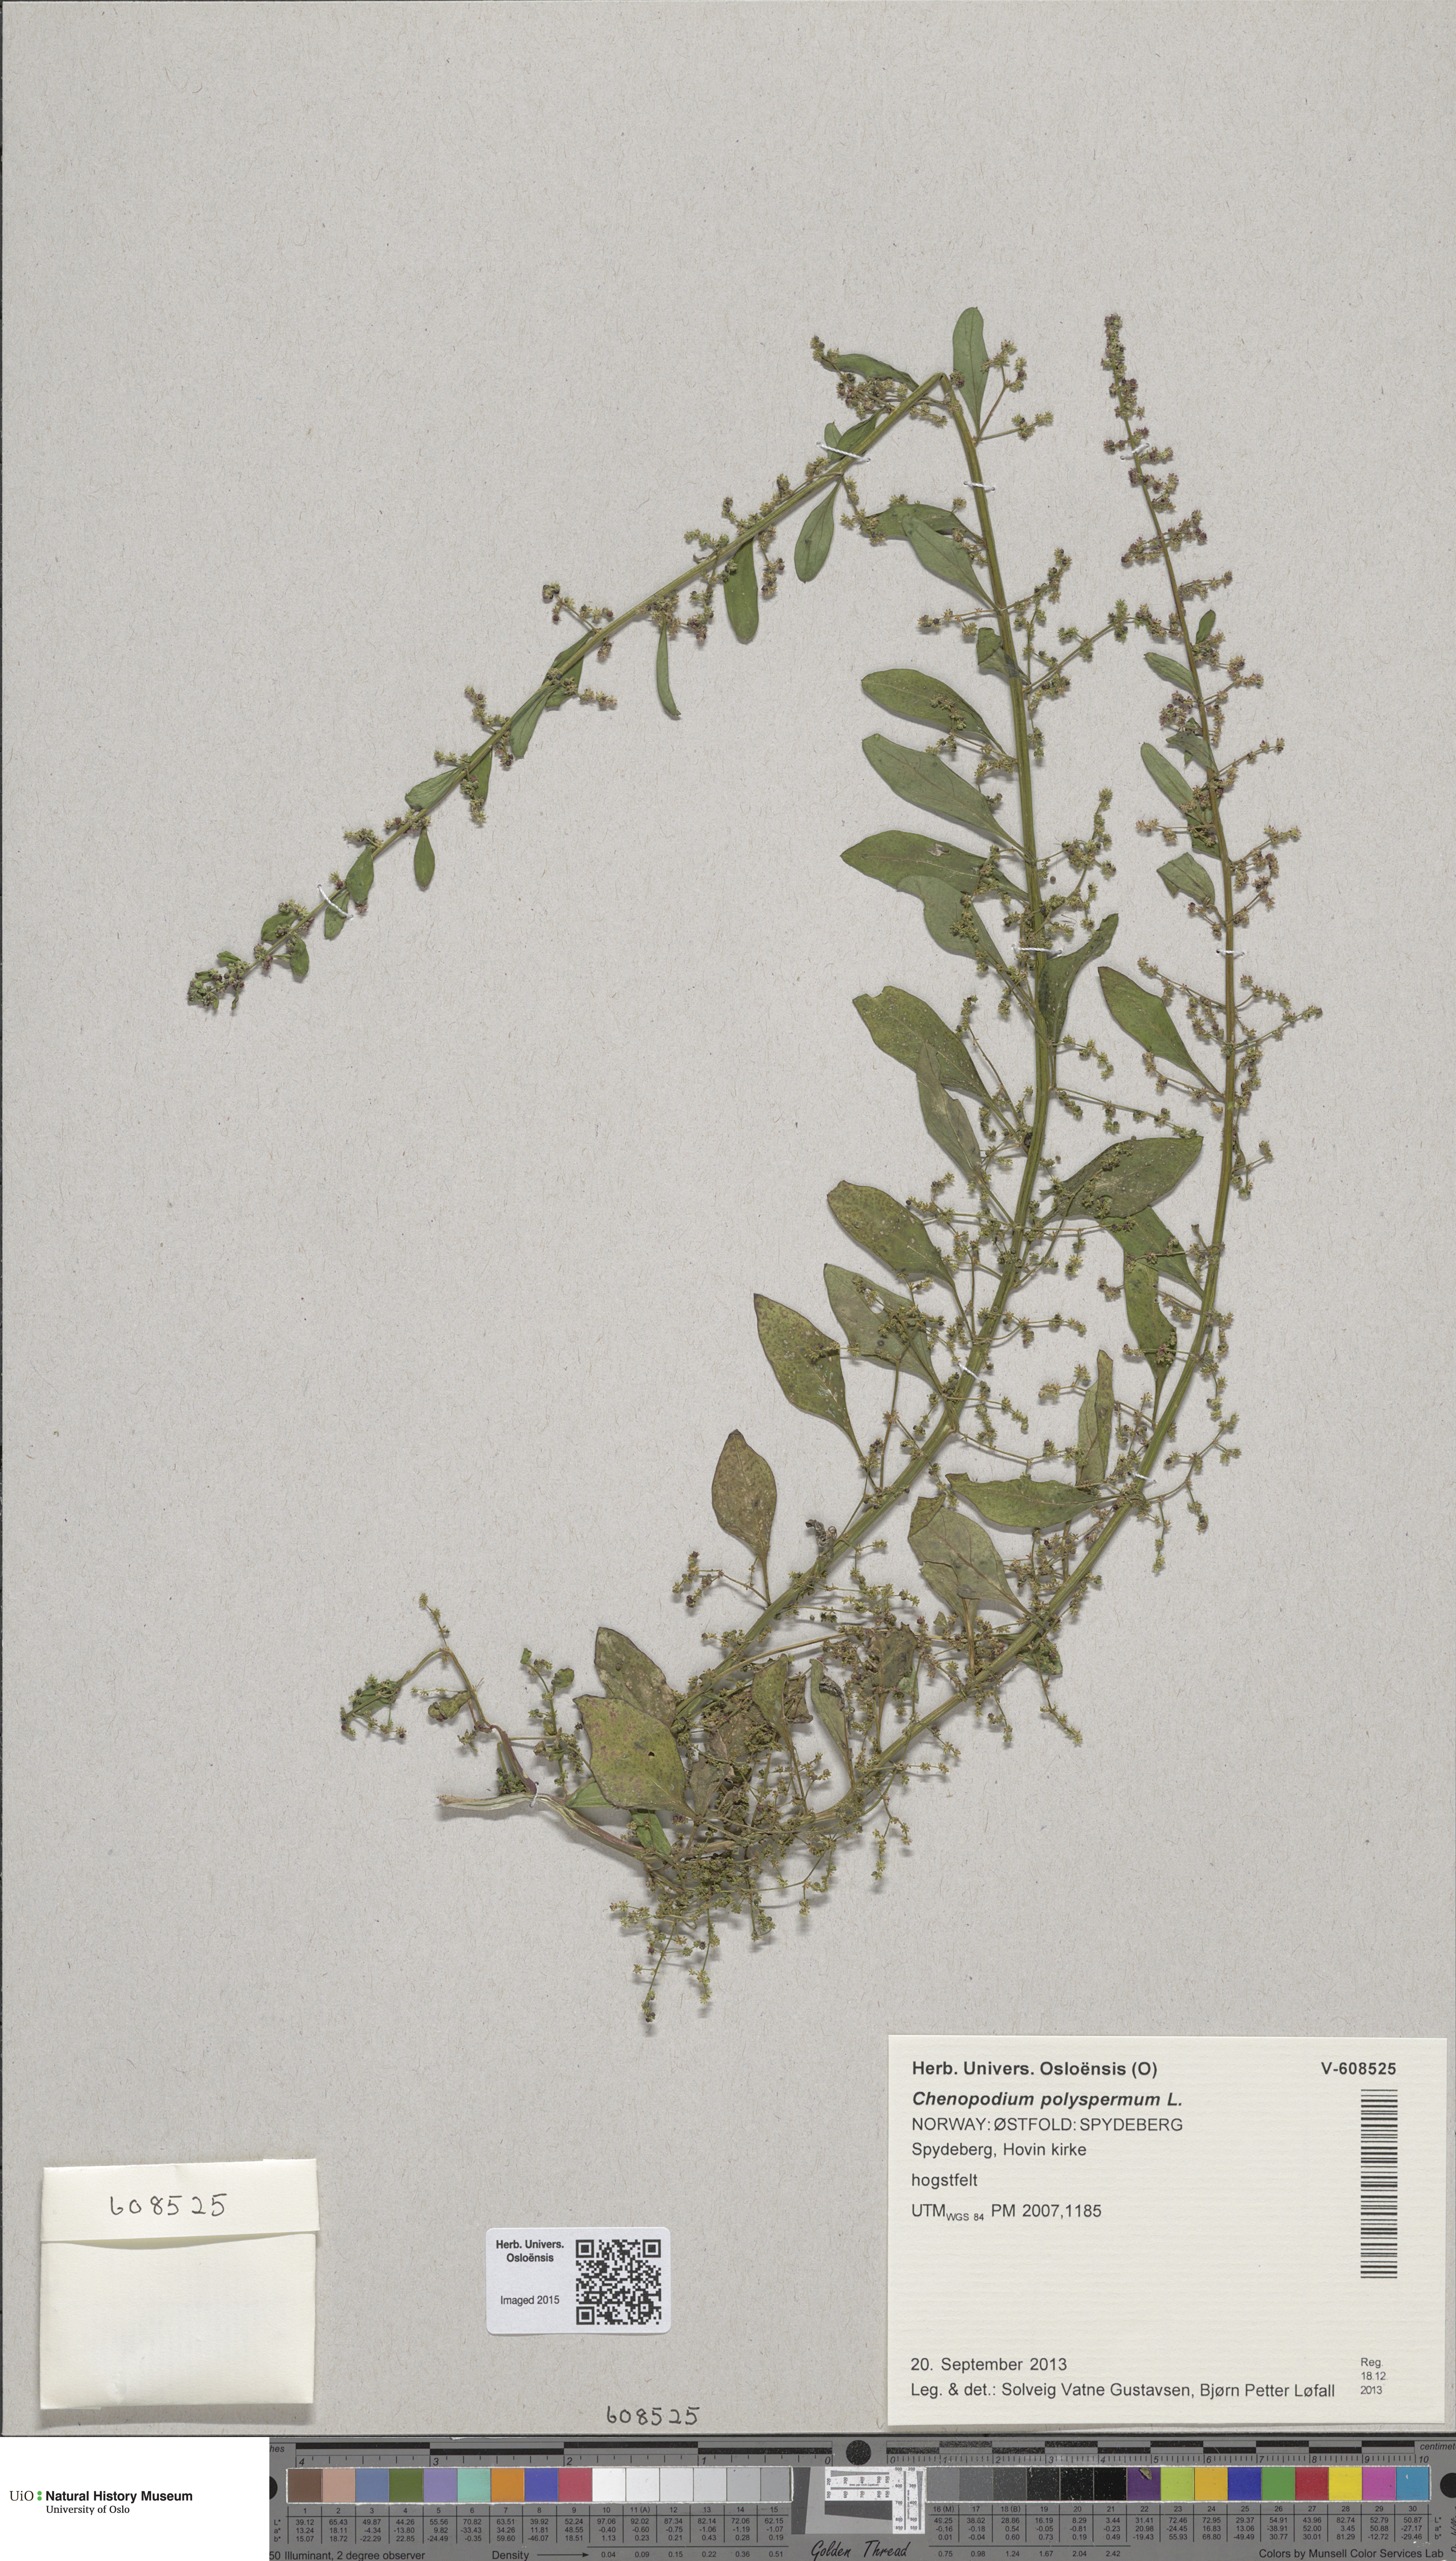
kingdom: Plantae
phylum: Tracheophyta
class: Magnoliopsida
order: Caryophyllales
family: Amaranthaceae
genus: Lipandra
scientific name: Lipandra polysperma
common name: Many-seed goosefoot
